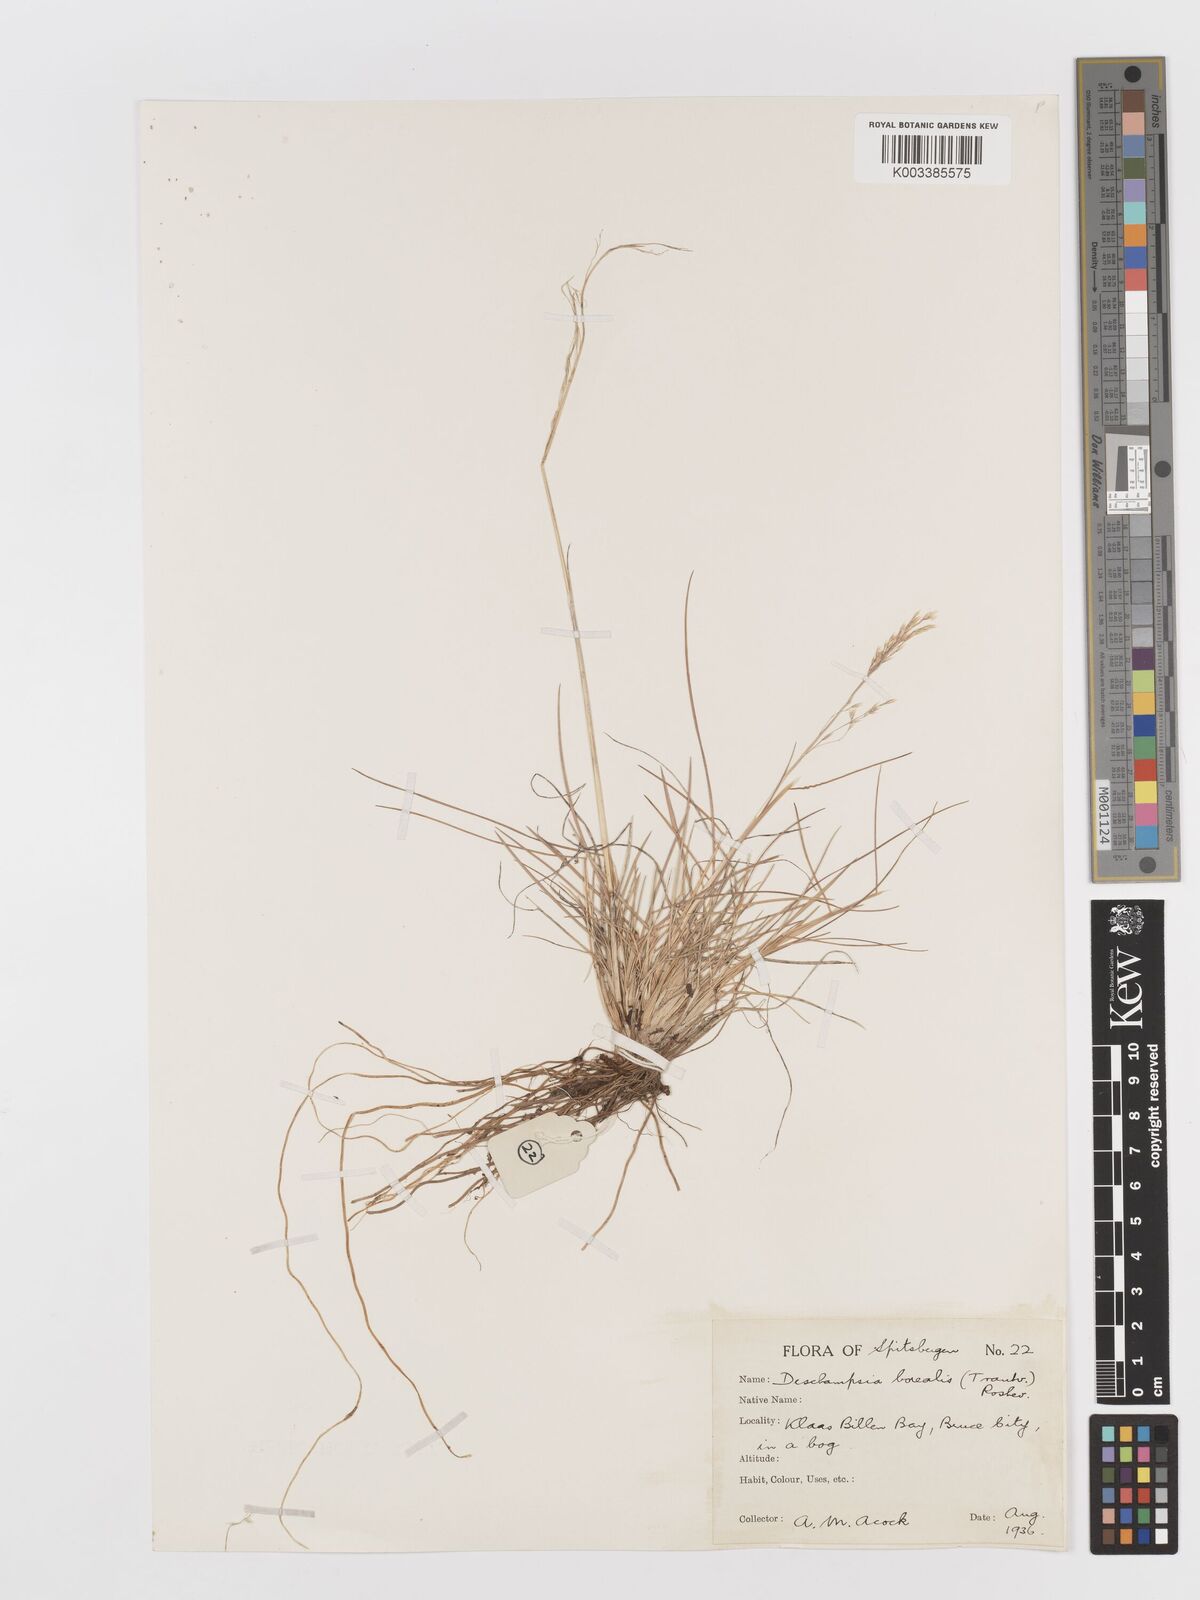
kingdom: Plantae
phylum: Tracheophyta
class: Liliopsida
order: Poales
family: Poaceae
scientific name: Poaceae
